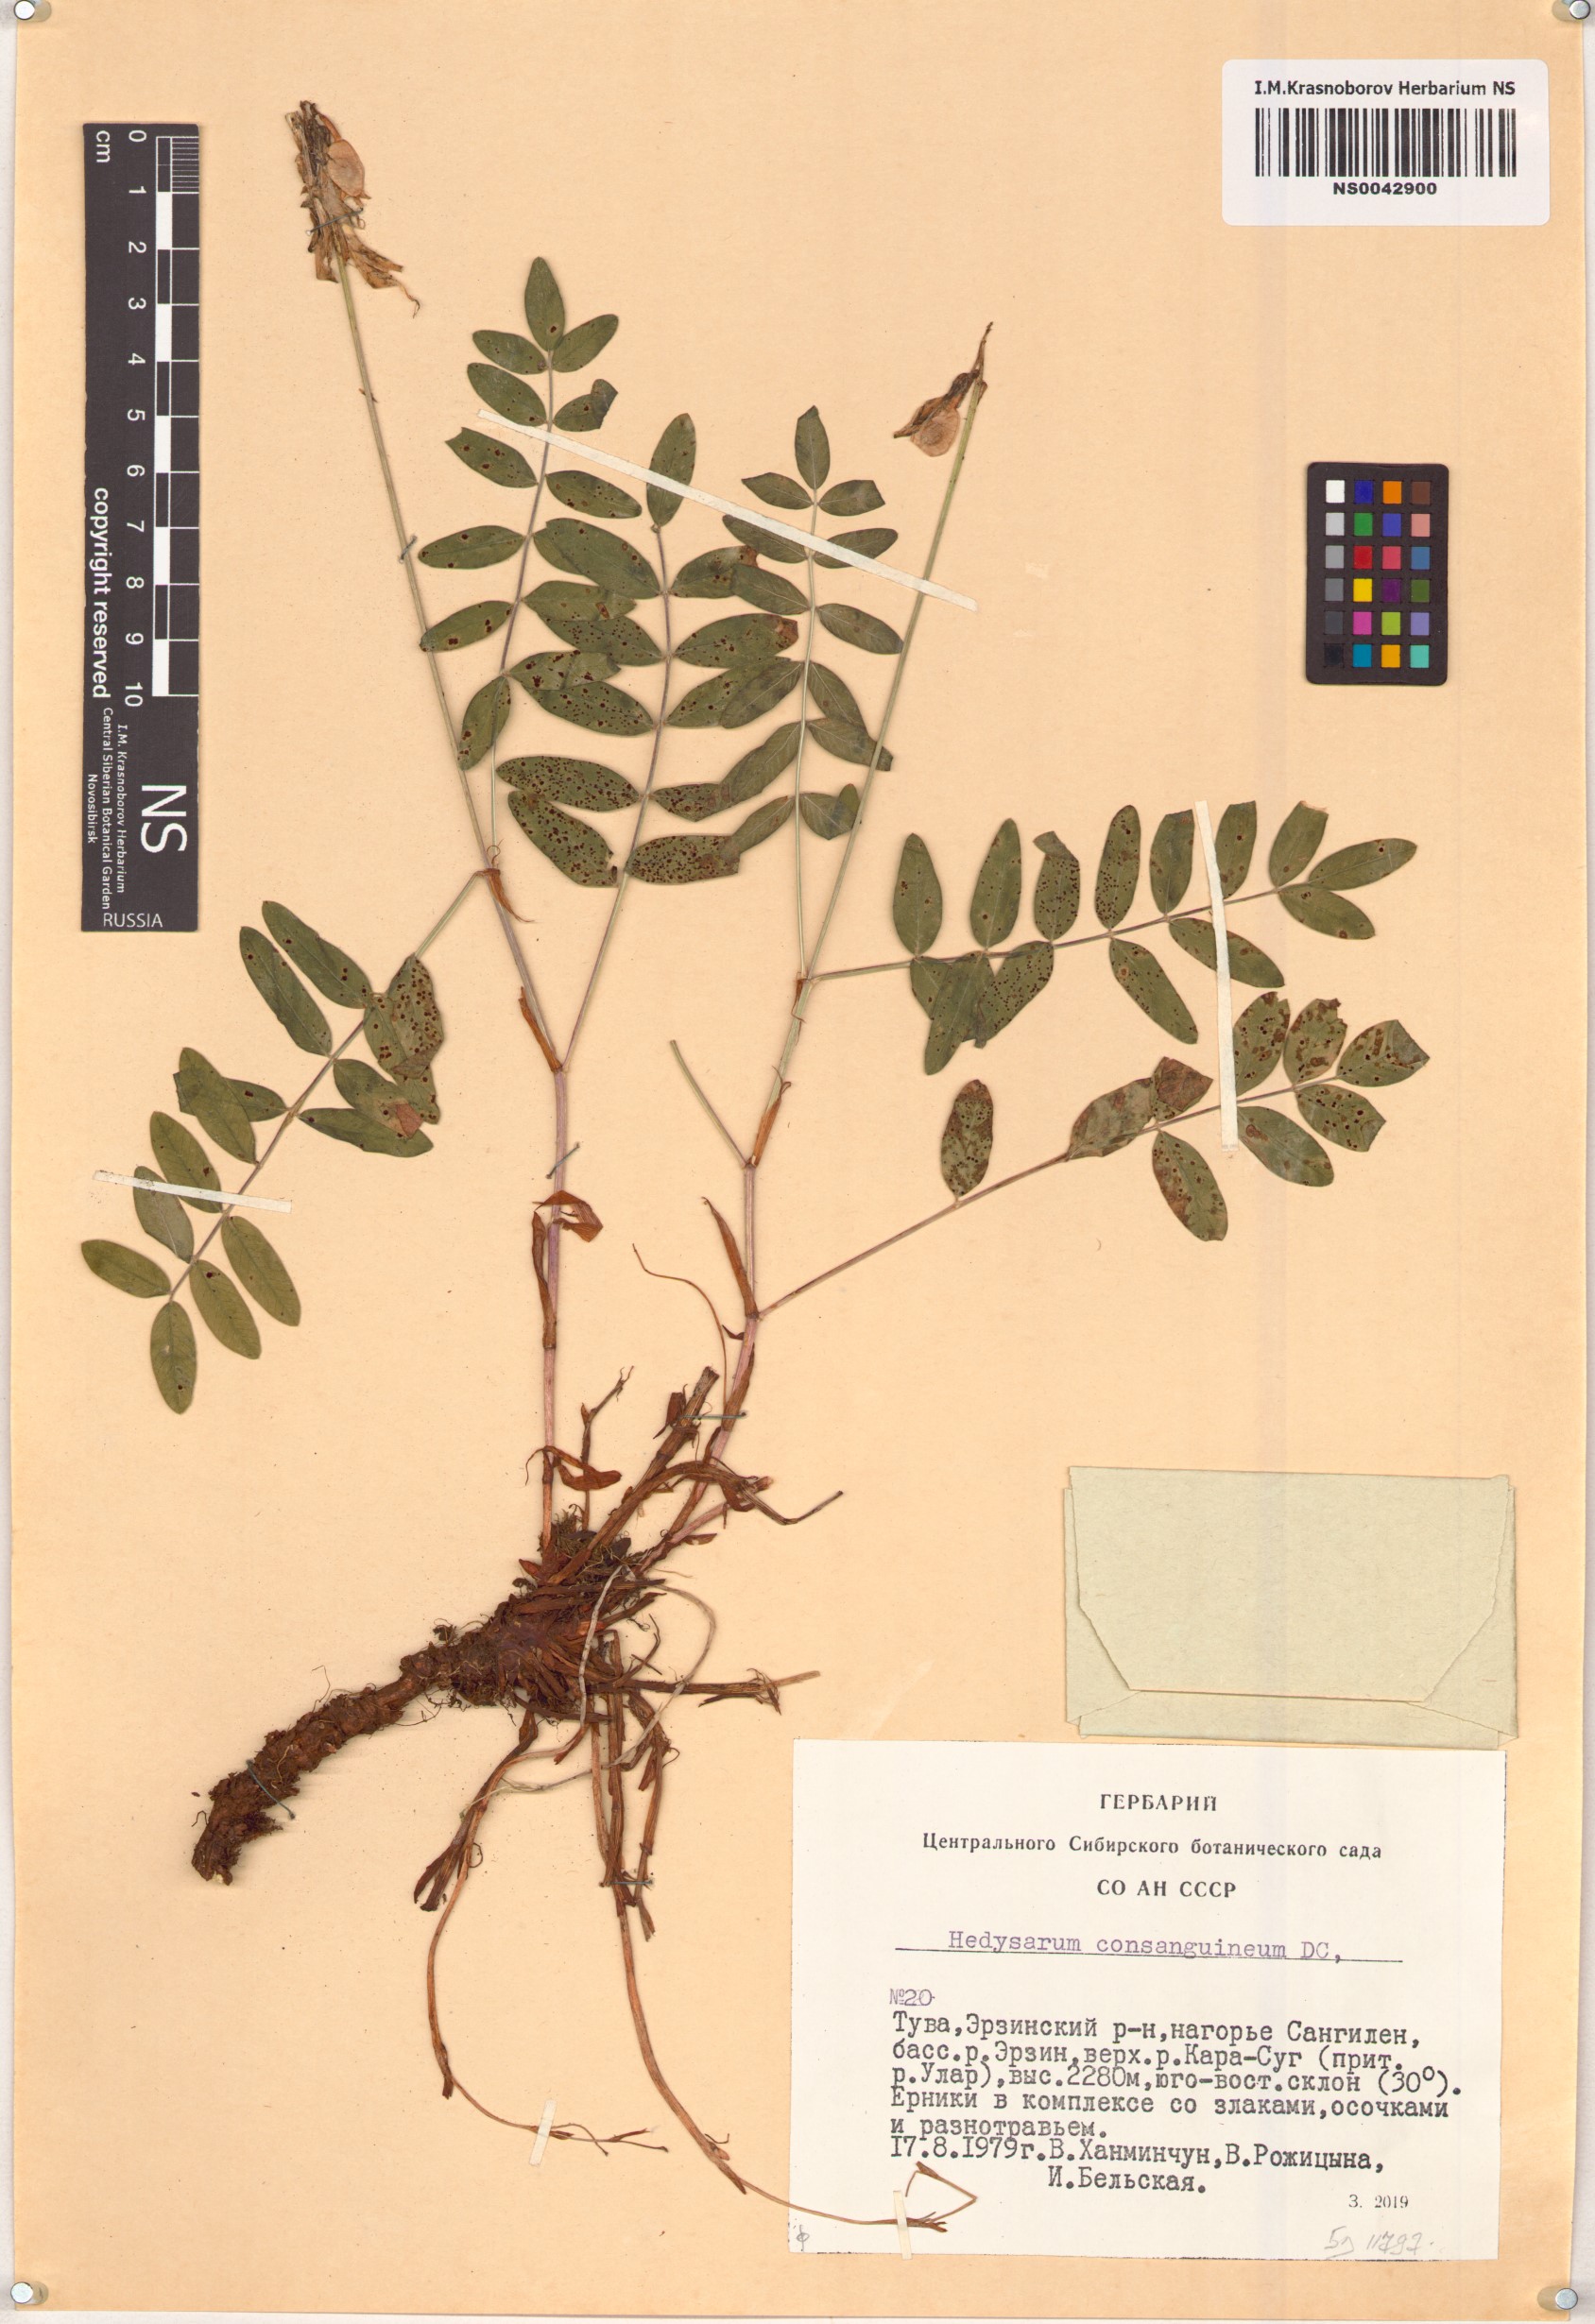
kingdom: Plantae
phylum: Tracheophyta
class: Magnoliopsida
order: Fabales
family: Fabaceae
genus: Hedysarum
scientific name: Hedysarum consanguineum
